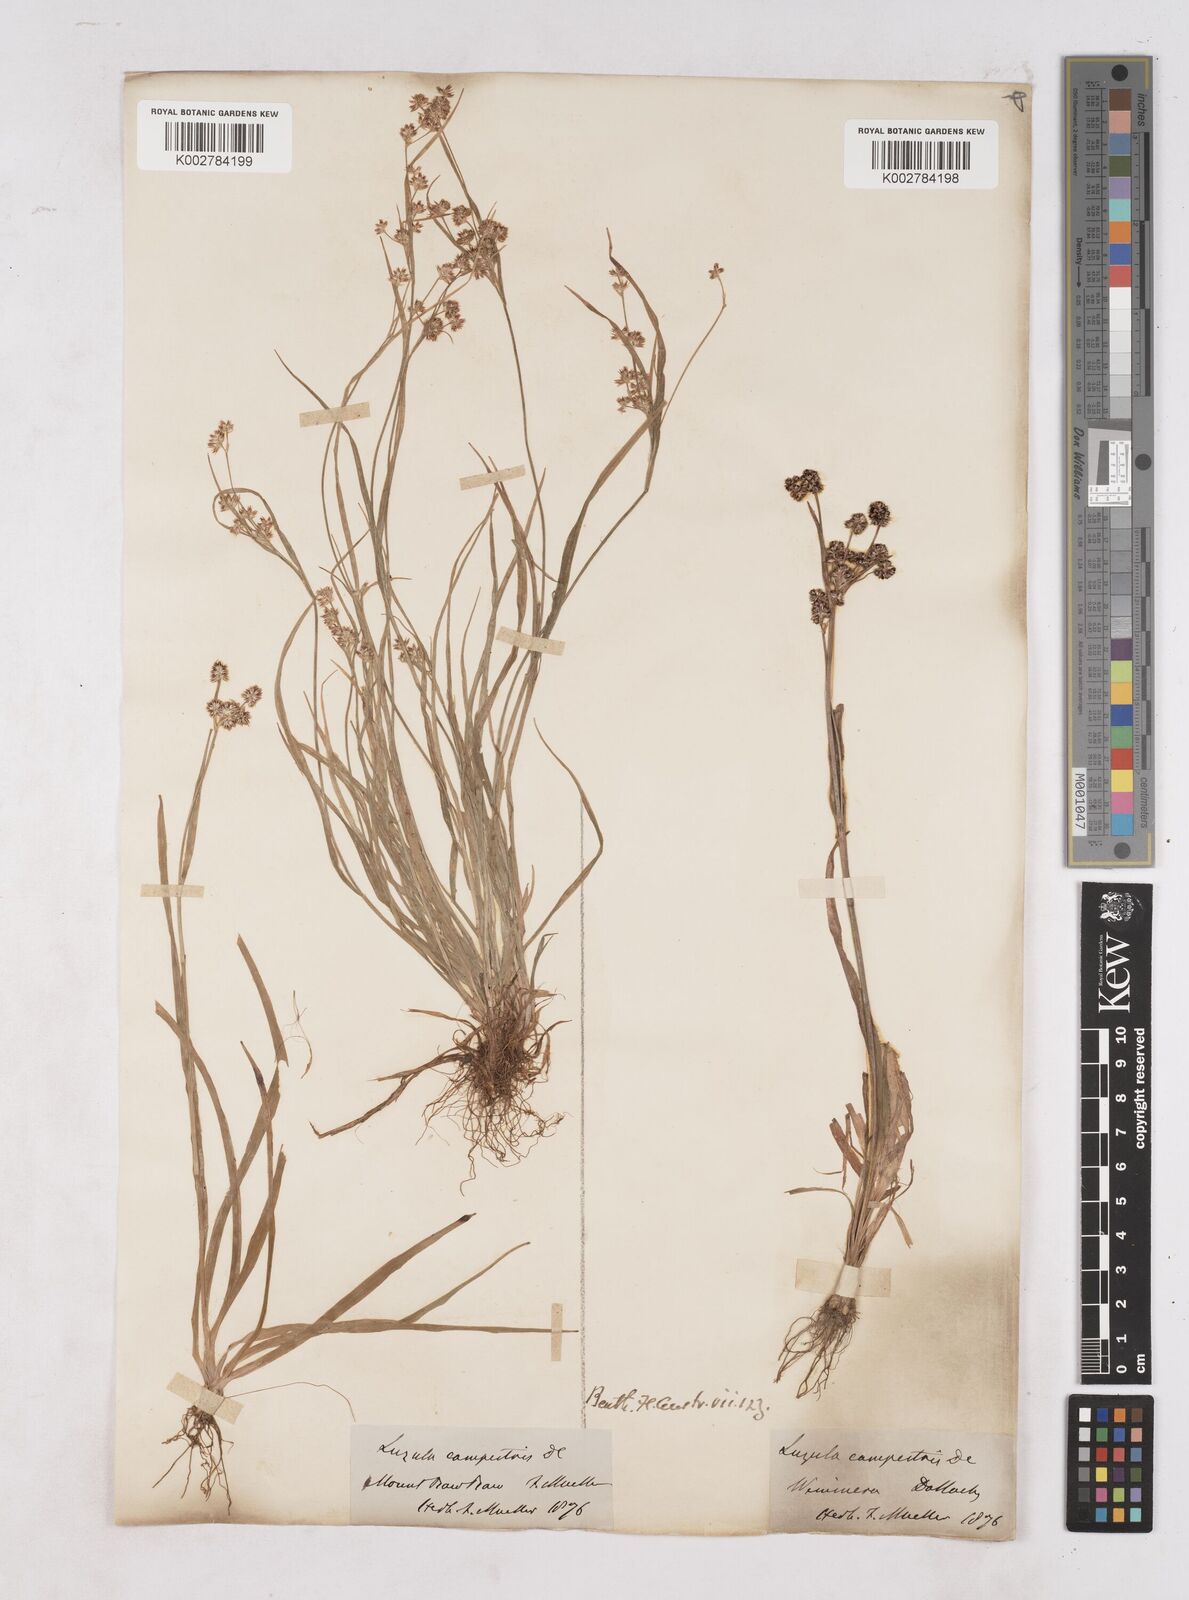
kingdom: Plantae
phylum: Tracheophyta
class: Liliopsida
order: Poales
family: Juncaceae
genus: Luzula
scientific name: Luzula campestris
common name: Field wood-rush
